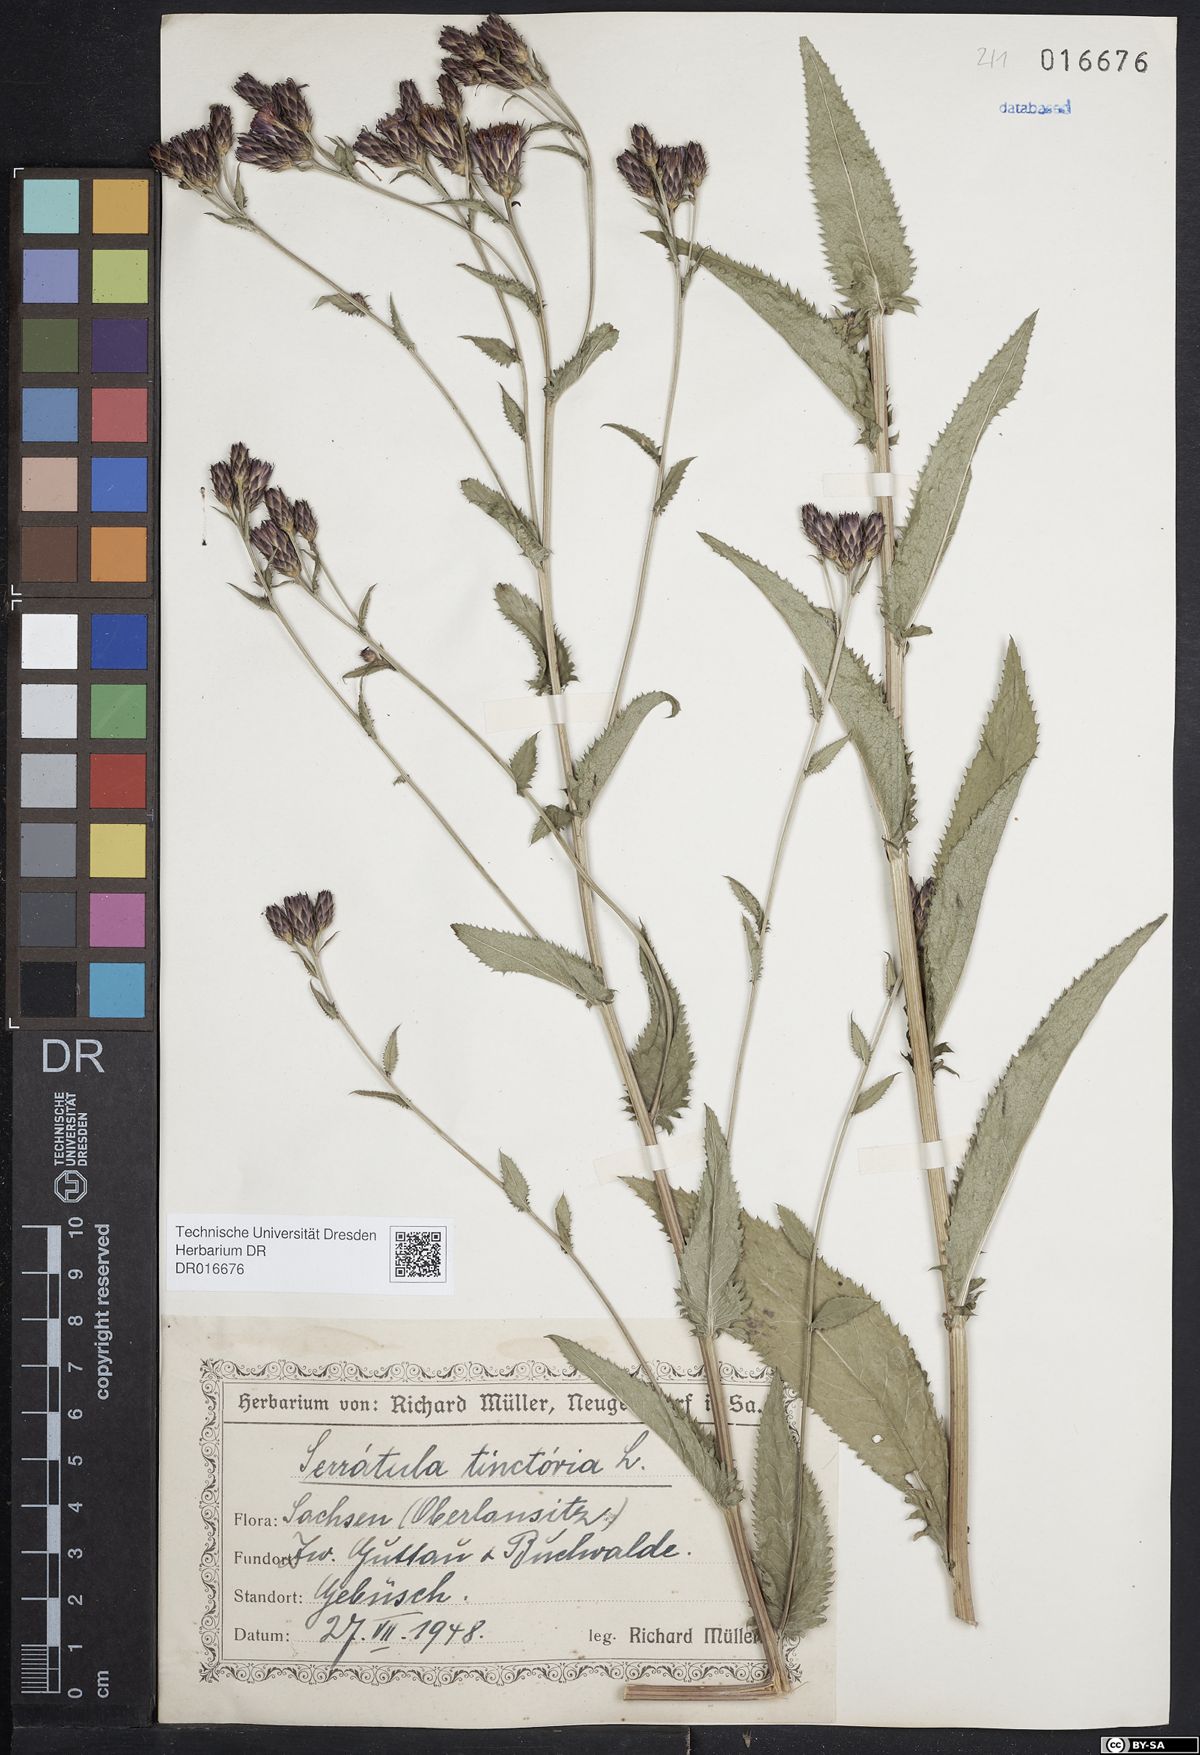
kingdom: Plantae
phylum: Tracheophyta
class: Magnoliopsida
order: Asterales
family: Asteraceae
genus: Serratula
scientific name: Serratula tinctoria
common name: Saw-wort
